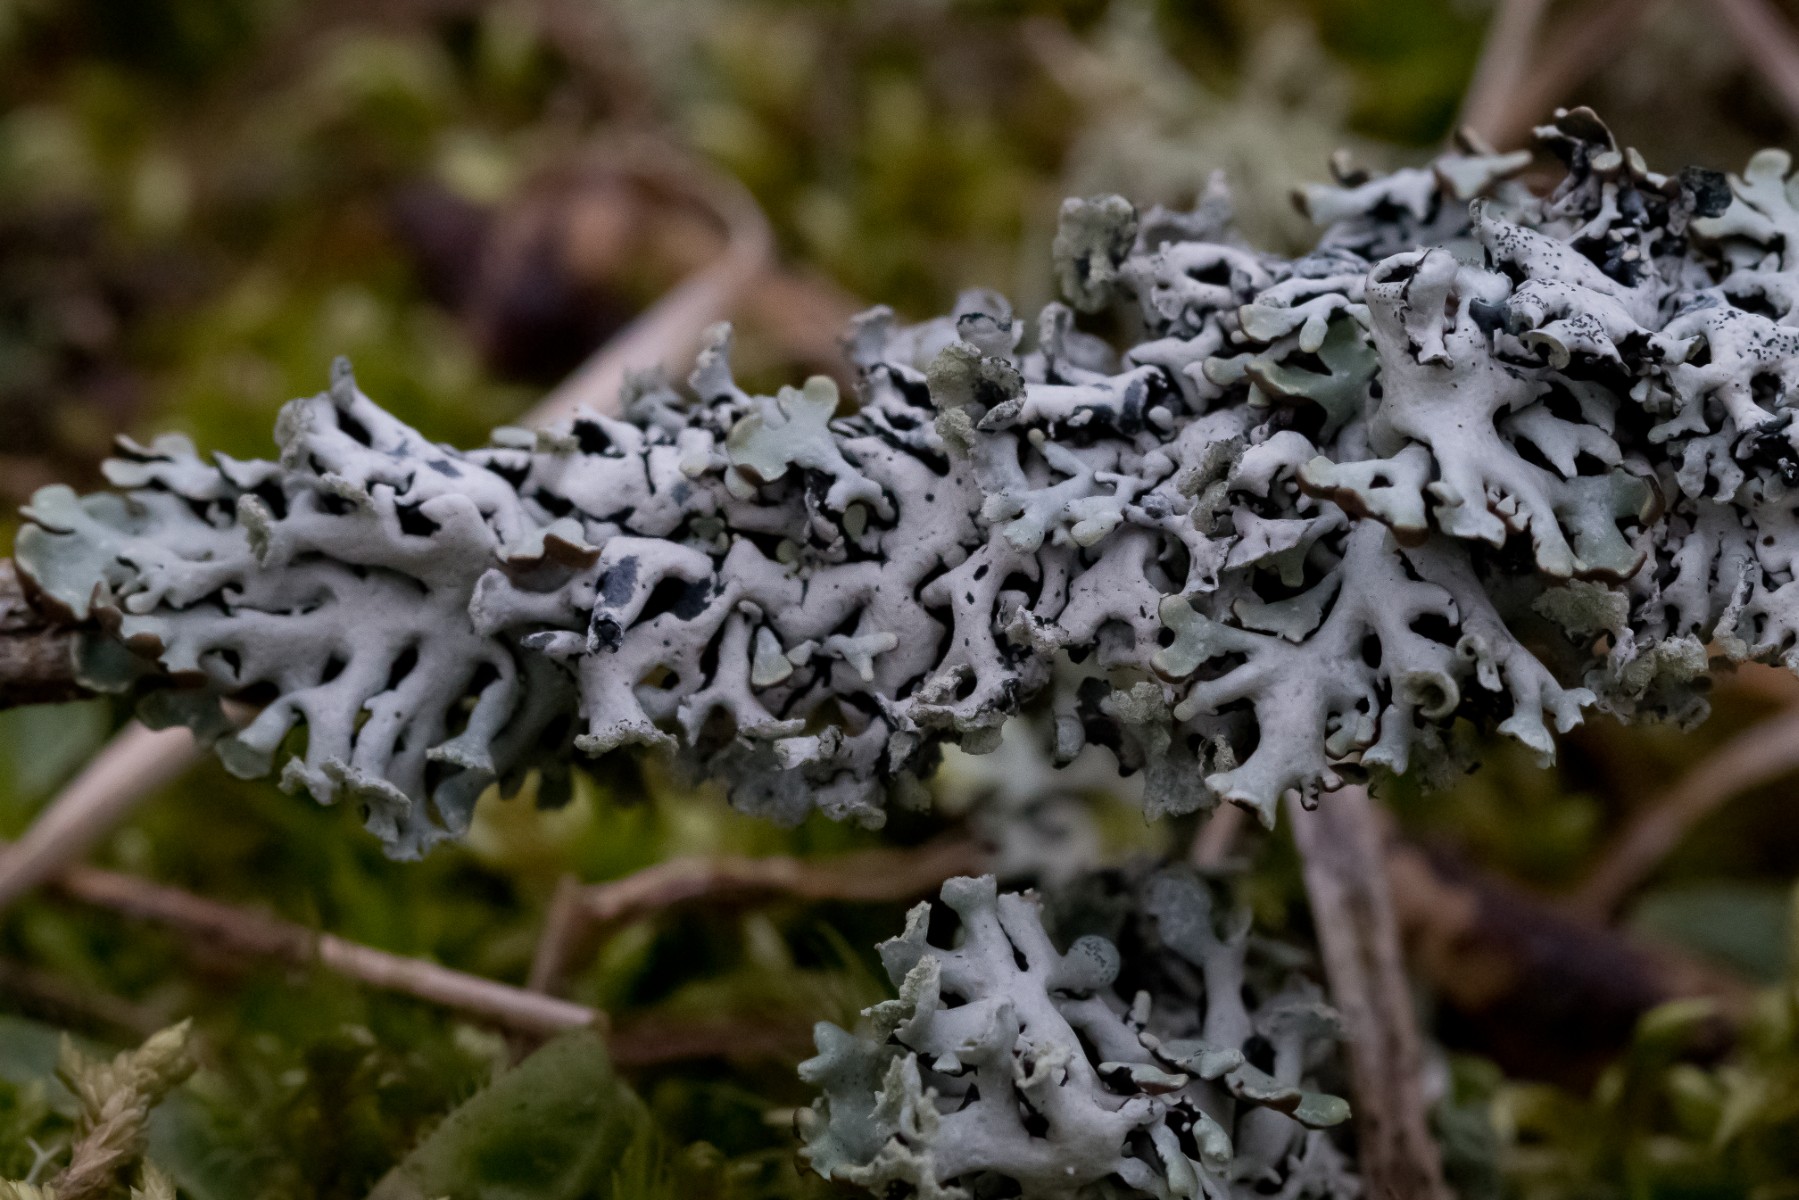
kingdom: Fungi
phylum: Ascomycota
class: Lecanoromycetes
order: Lecanorales
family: Parmeliaceae
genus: Hypogymnia
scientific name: Hypogymnia physodes
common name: almindelig kvistlav
